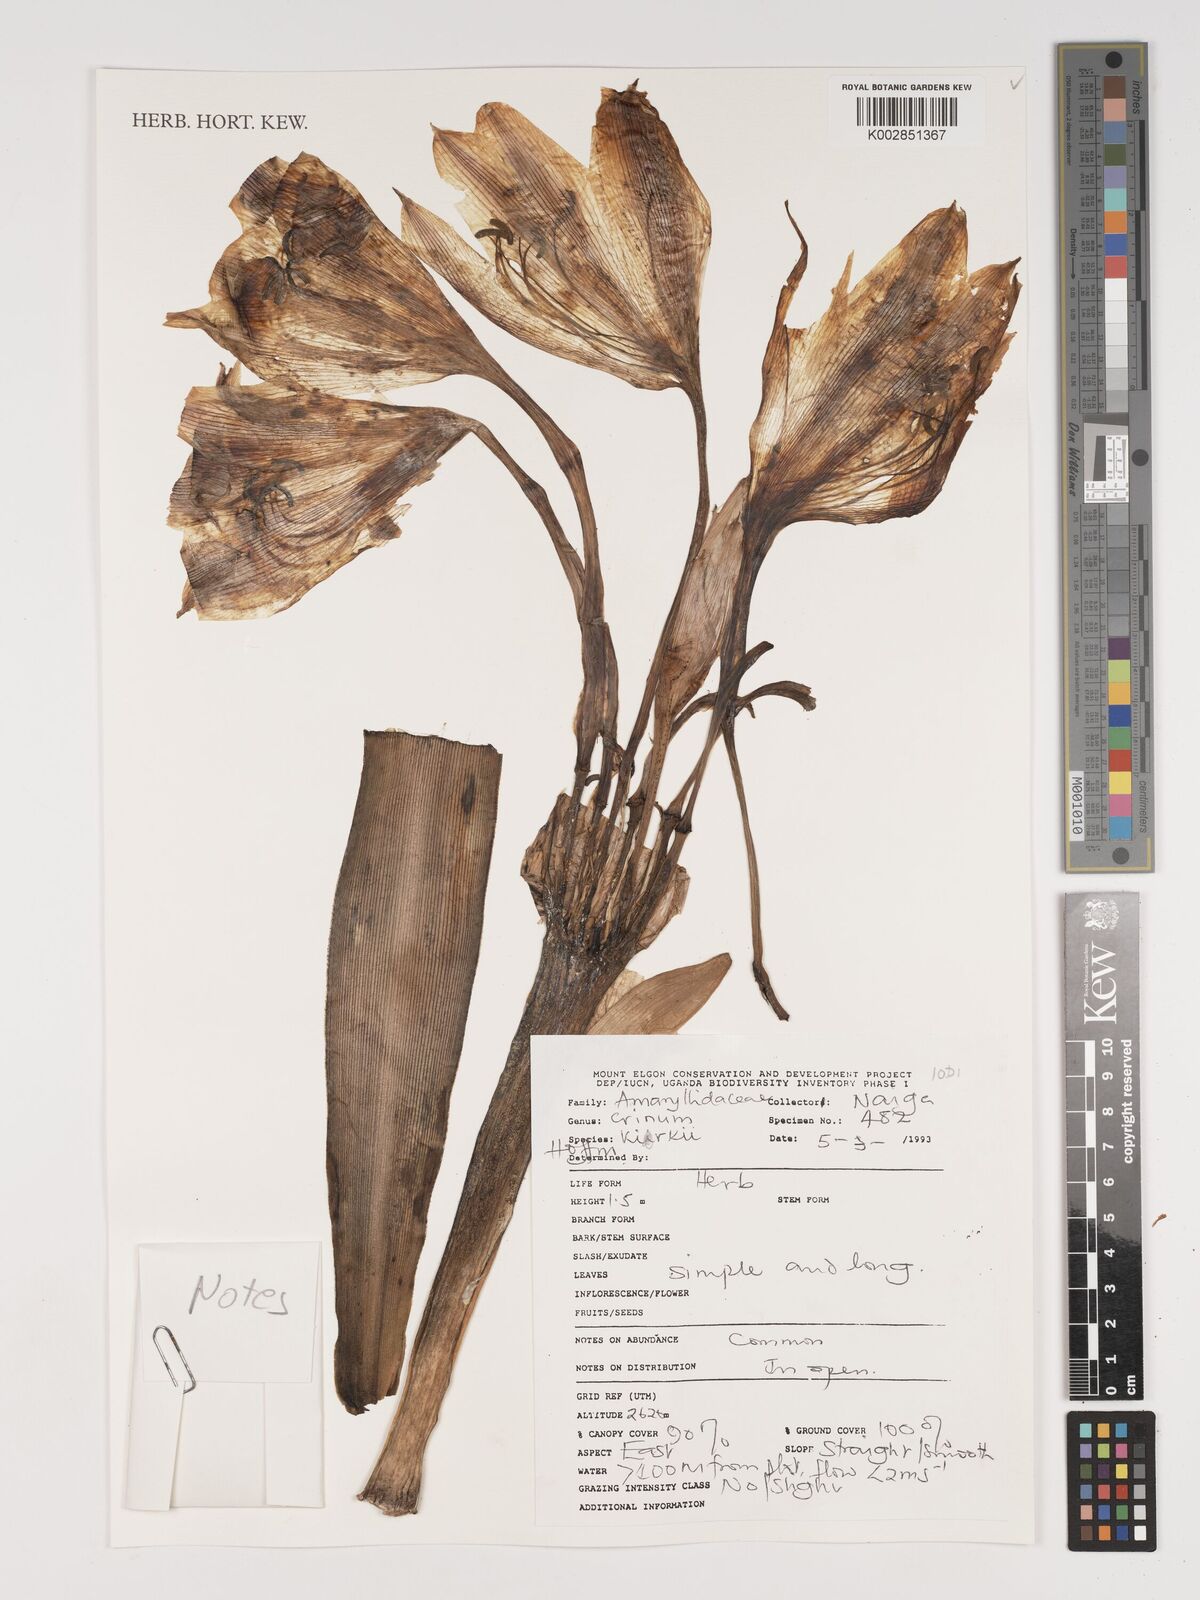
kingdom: Plantae
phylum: Tracheophyta
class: Liliopsida
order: Asparagales
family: Amaryllidaceae
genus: Crinum
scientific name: Crinum kirkii
